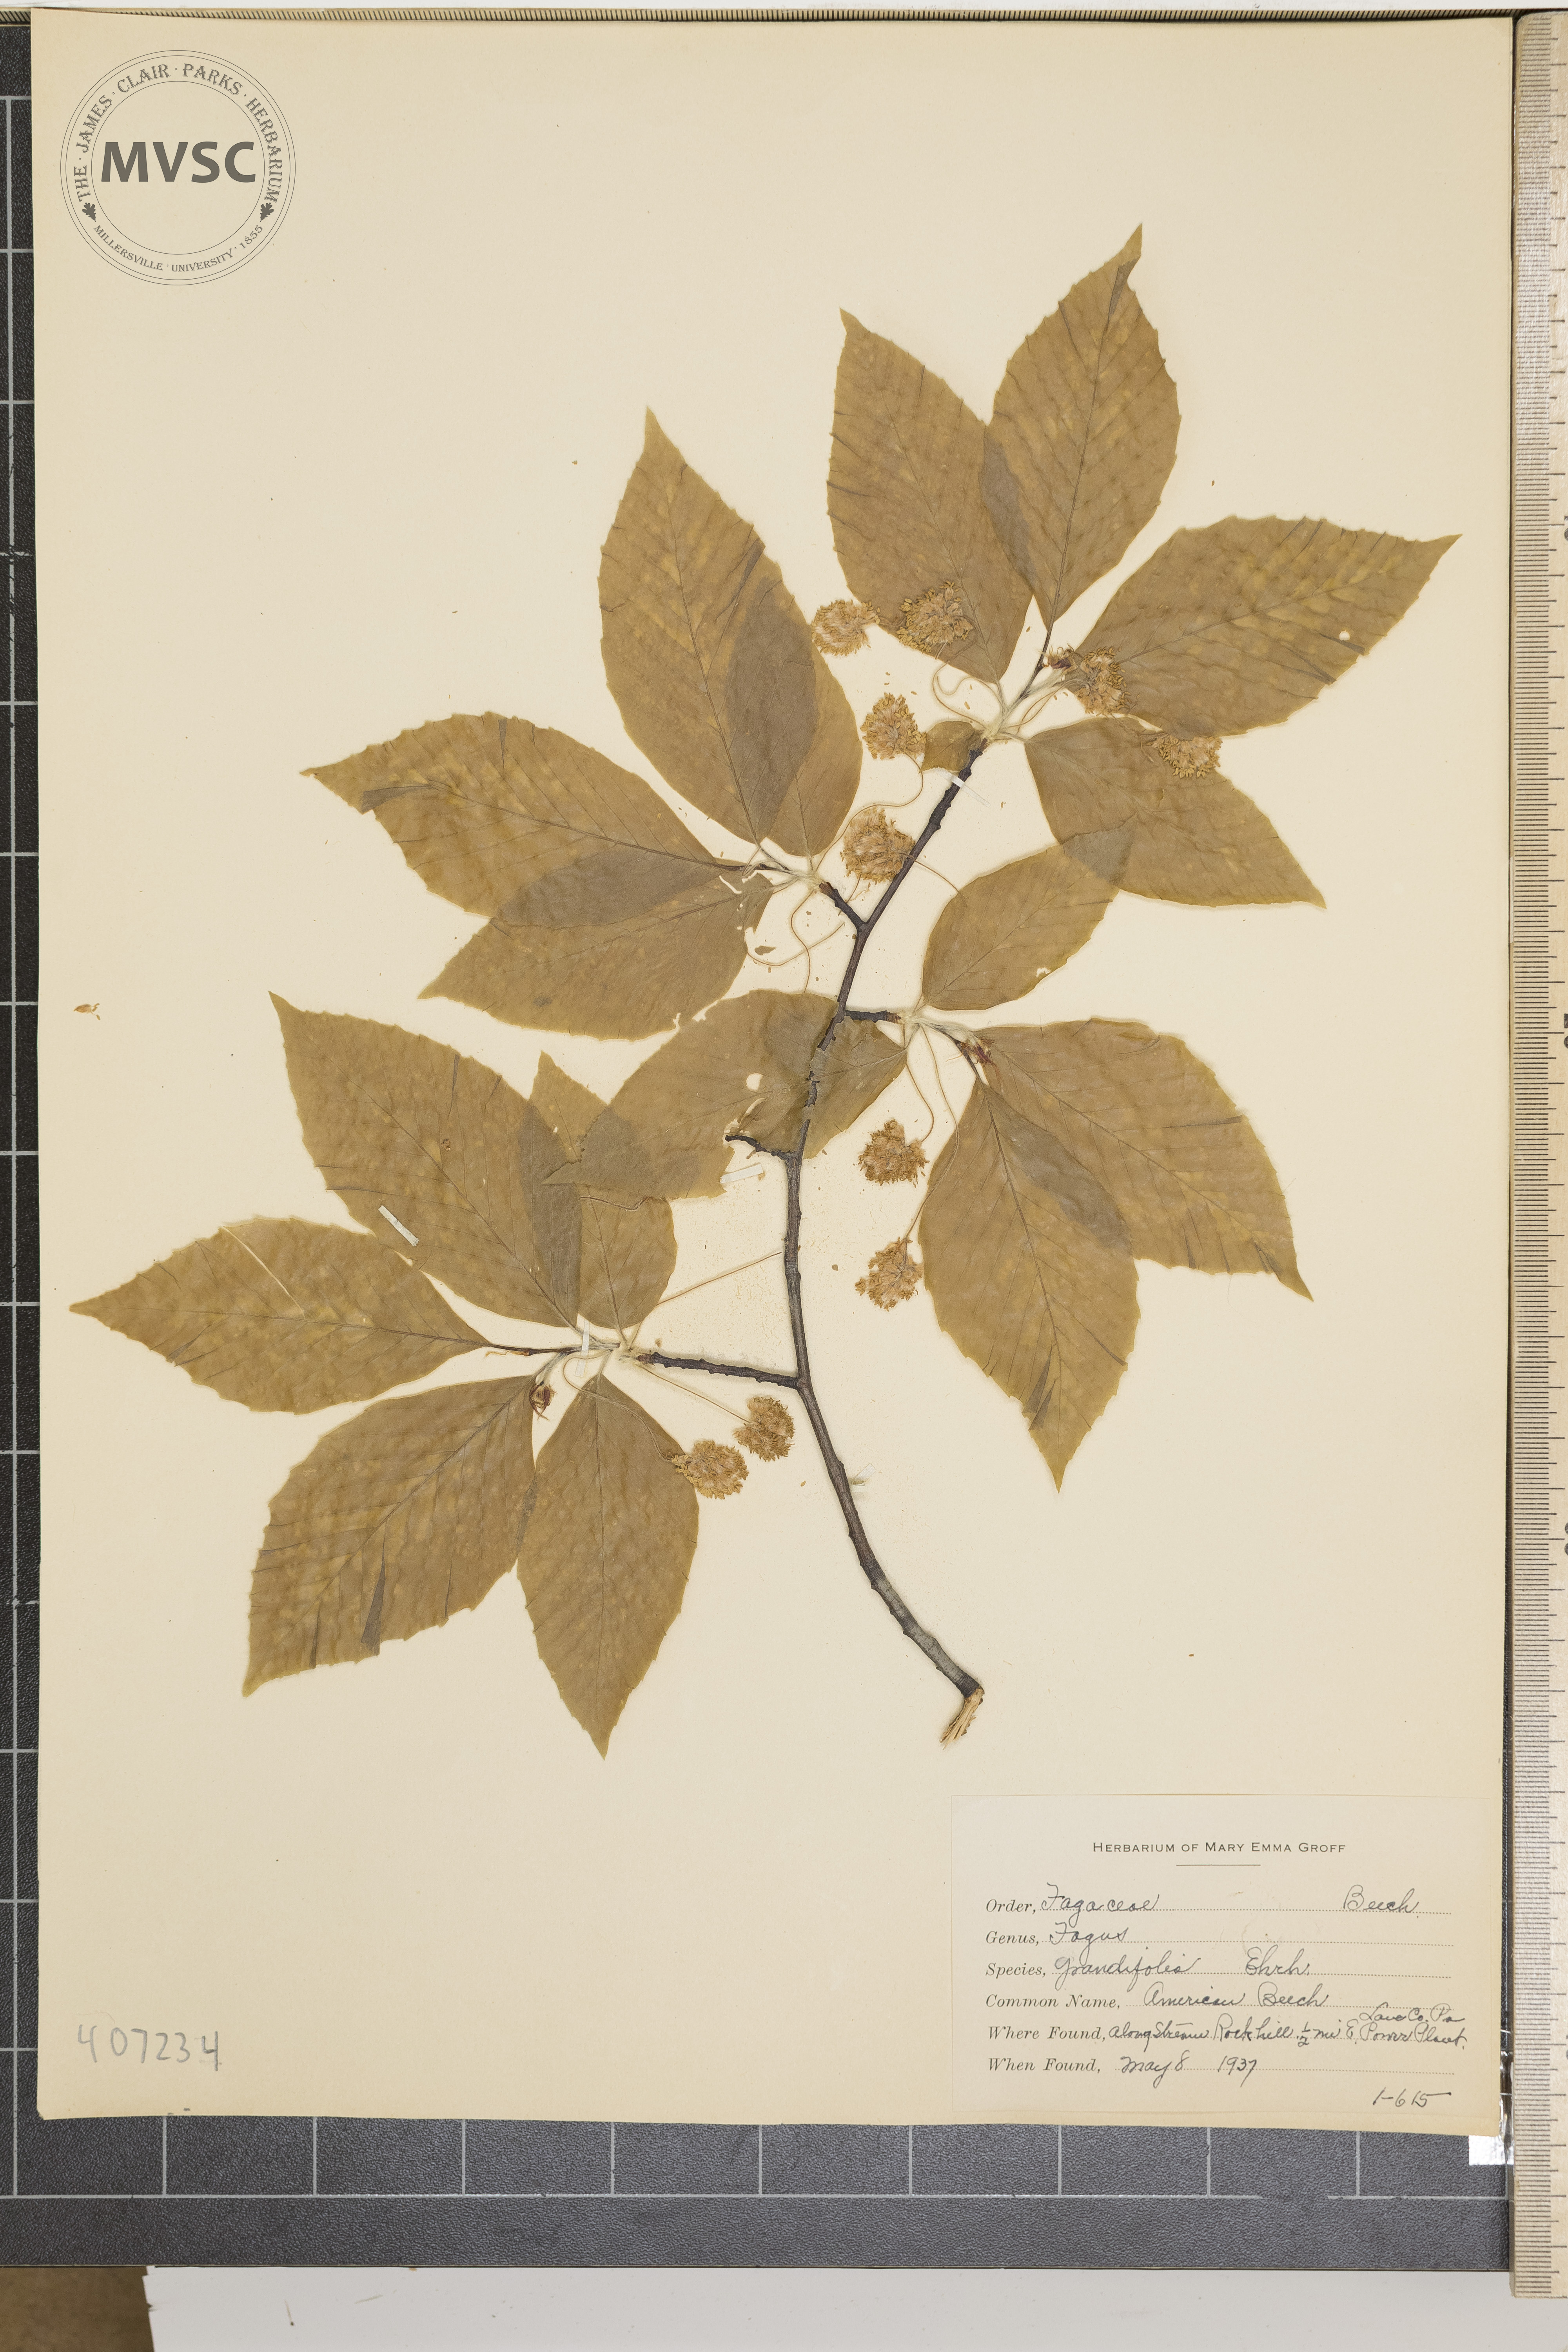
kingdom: Plantae
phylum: Tracheophyta
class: Magnoliopsida
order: Fagales
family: Fagaceae
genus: Fagus
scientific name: Fagus grandifolia
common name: American Beech
